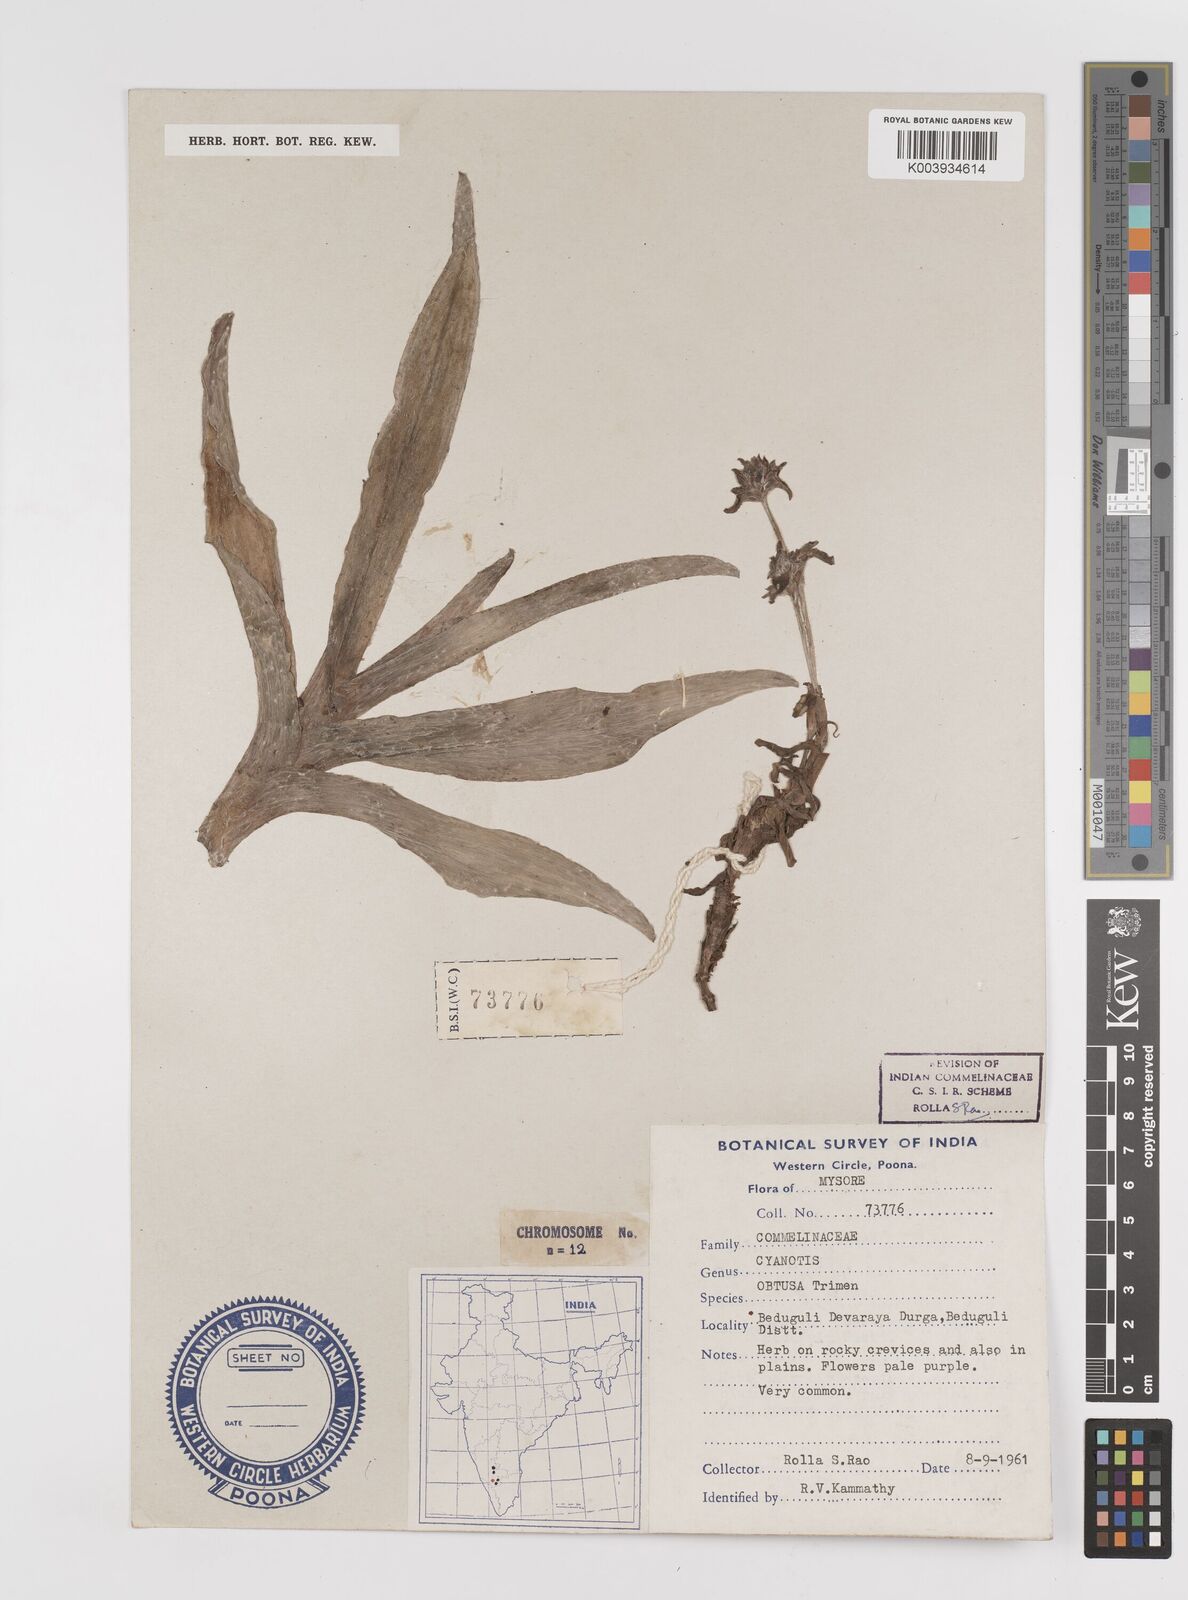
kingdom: Plantae
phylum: Tracheophyta
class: Liliopsida
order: Commelinales
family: Commelinaceae
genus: Cyanotis
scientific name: Cyanotis arachnoidea
